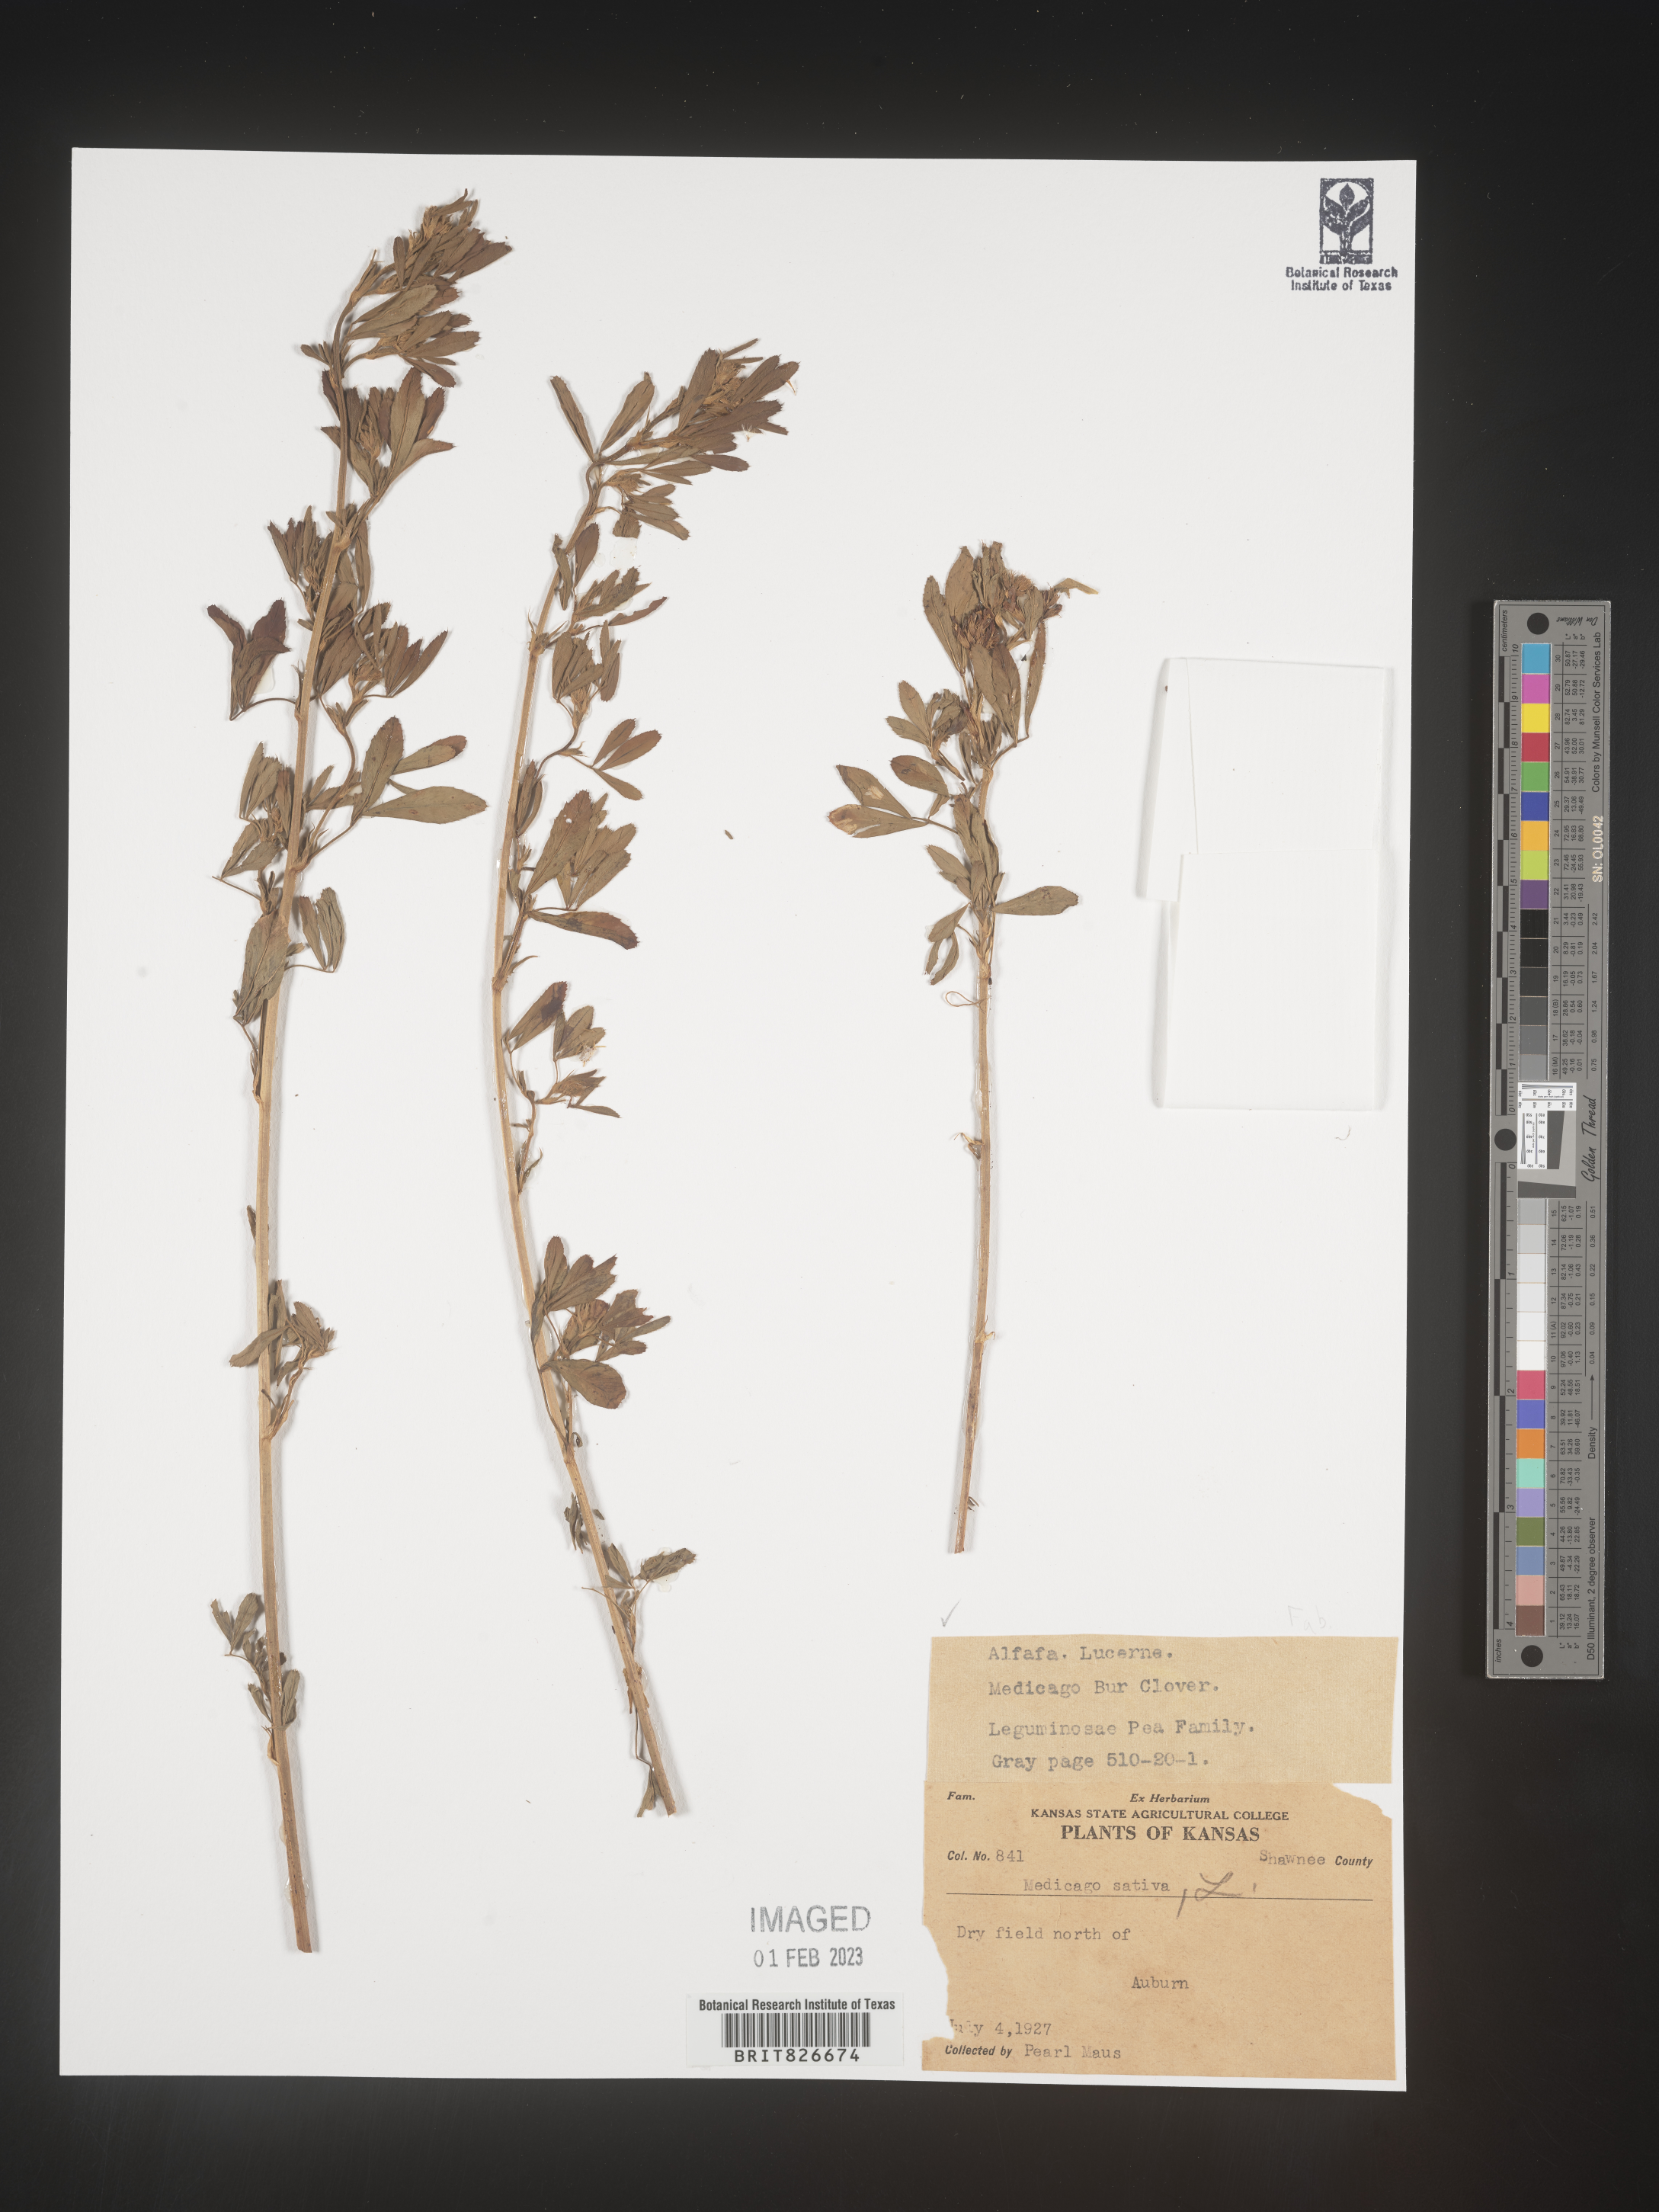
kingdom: Plantae
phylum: Tracheophyta
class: Magnoliopsida
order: Fabales
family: Fabaceae
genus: Medicago
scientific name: Medicago sativa
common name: Alfalfa
